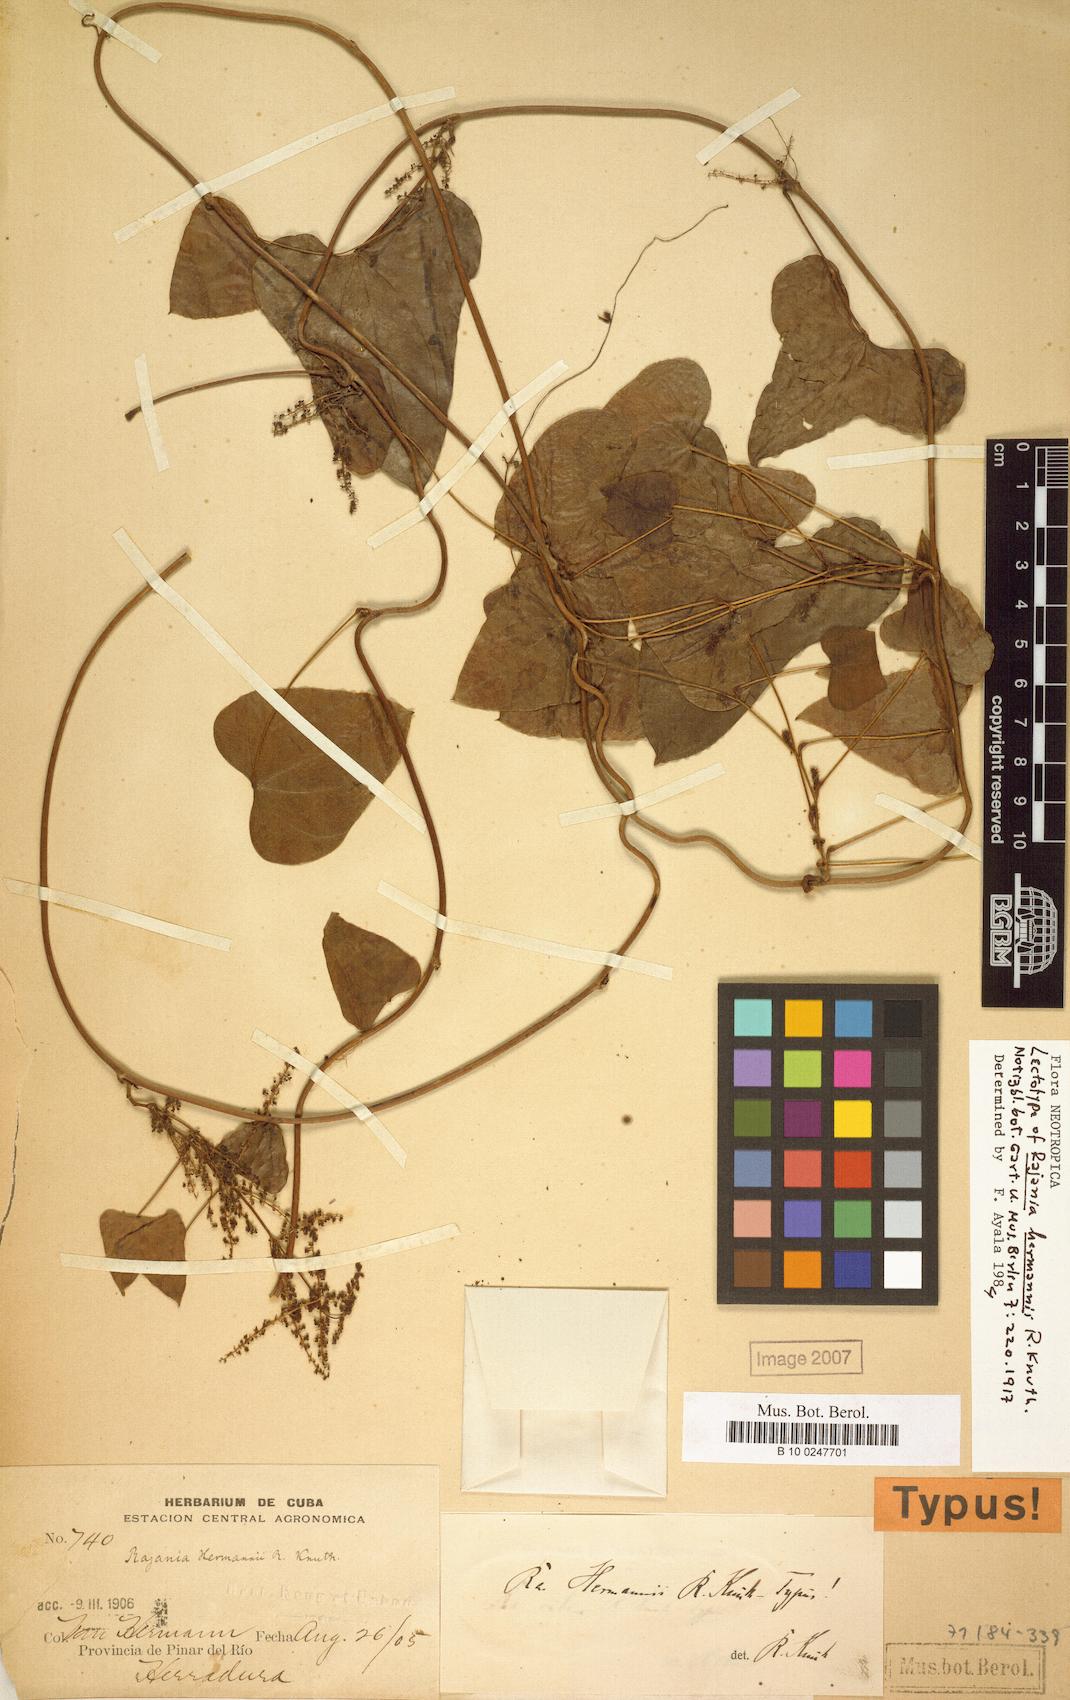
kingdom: Plantae
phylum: Tracheophyta
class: Liliopsida
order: Dioscoreales
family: Dioscoreaceae
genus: Dioscorea
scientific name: Dioscorea cephalocarpa
